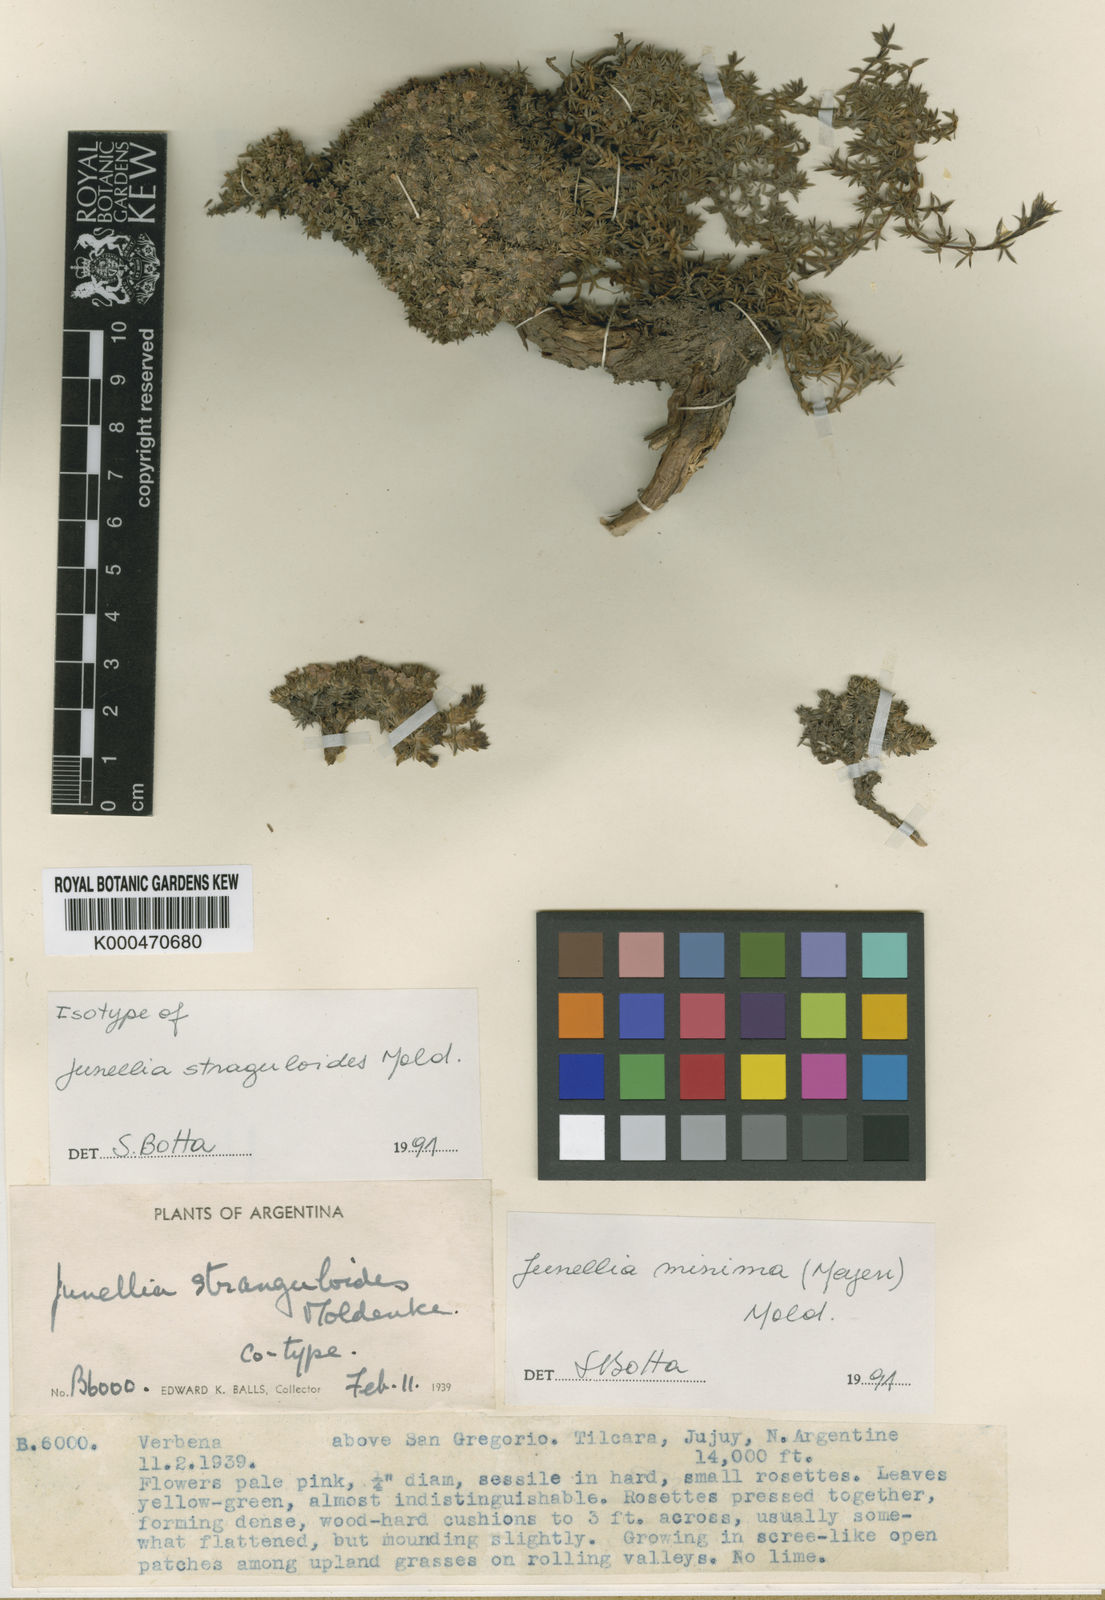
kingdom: Plantae
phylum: Tracheophyta
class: Magnoliopsida
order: Lamiales
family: Verbenaceae
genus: Junellia
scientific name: Junellia minima
